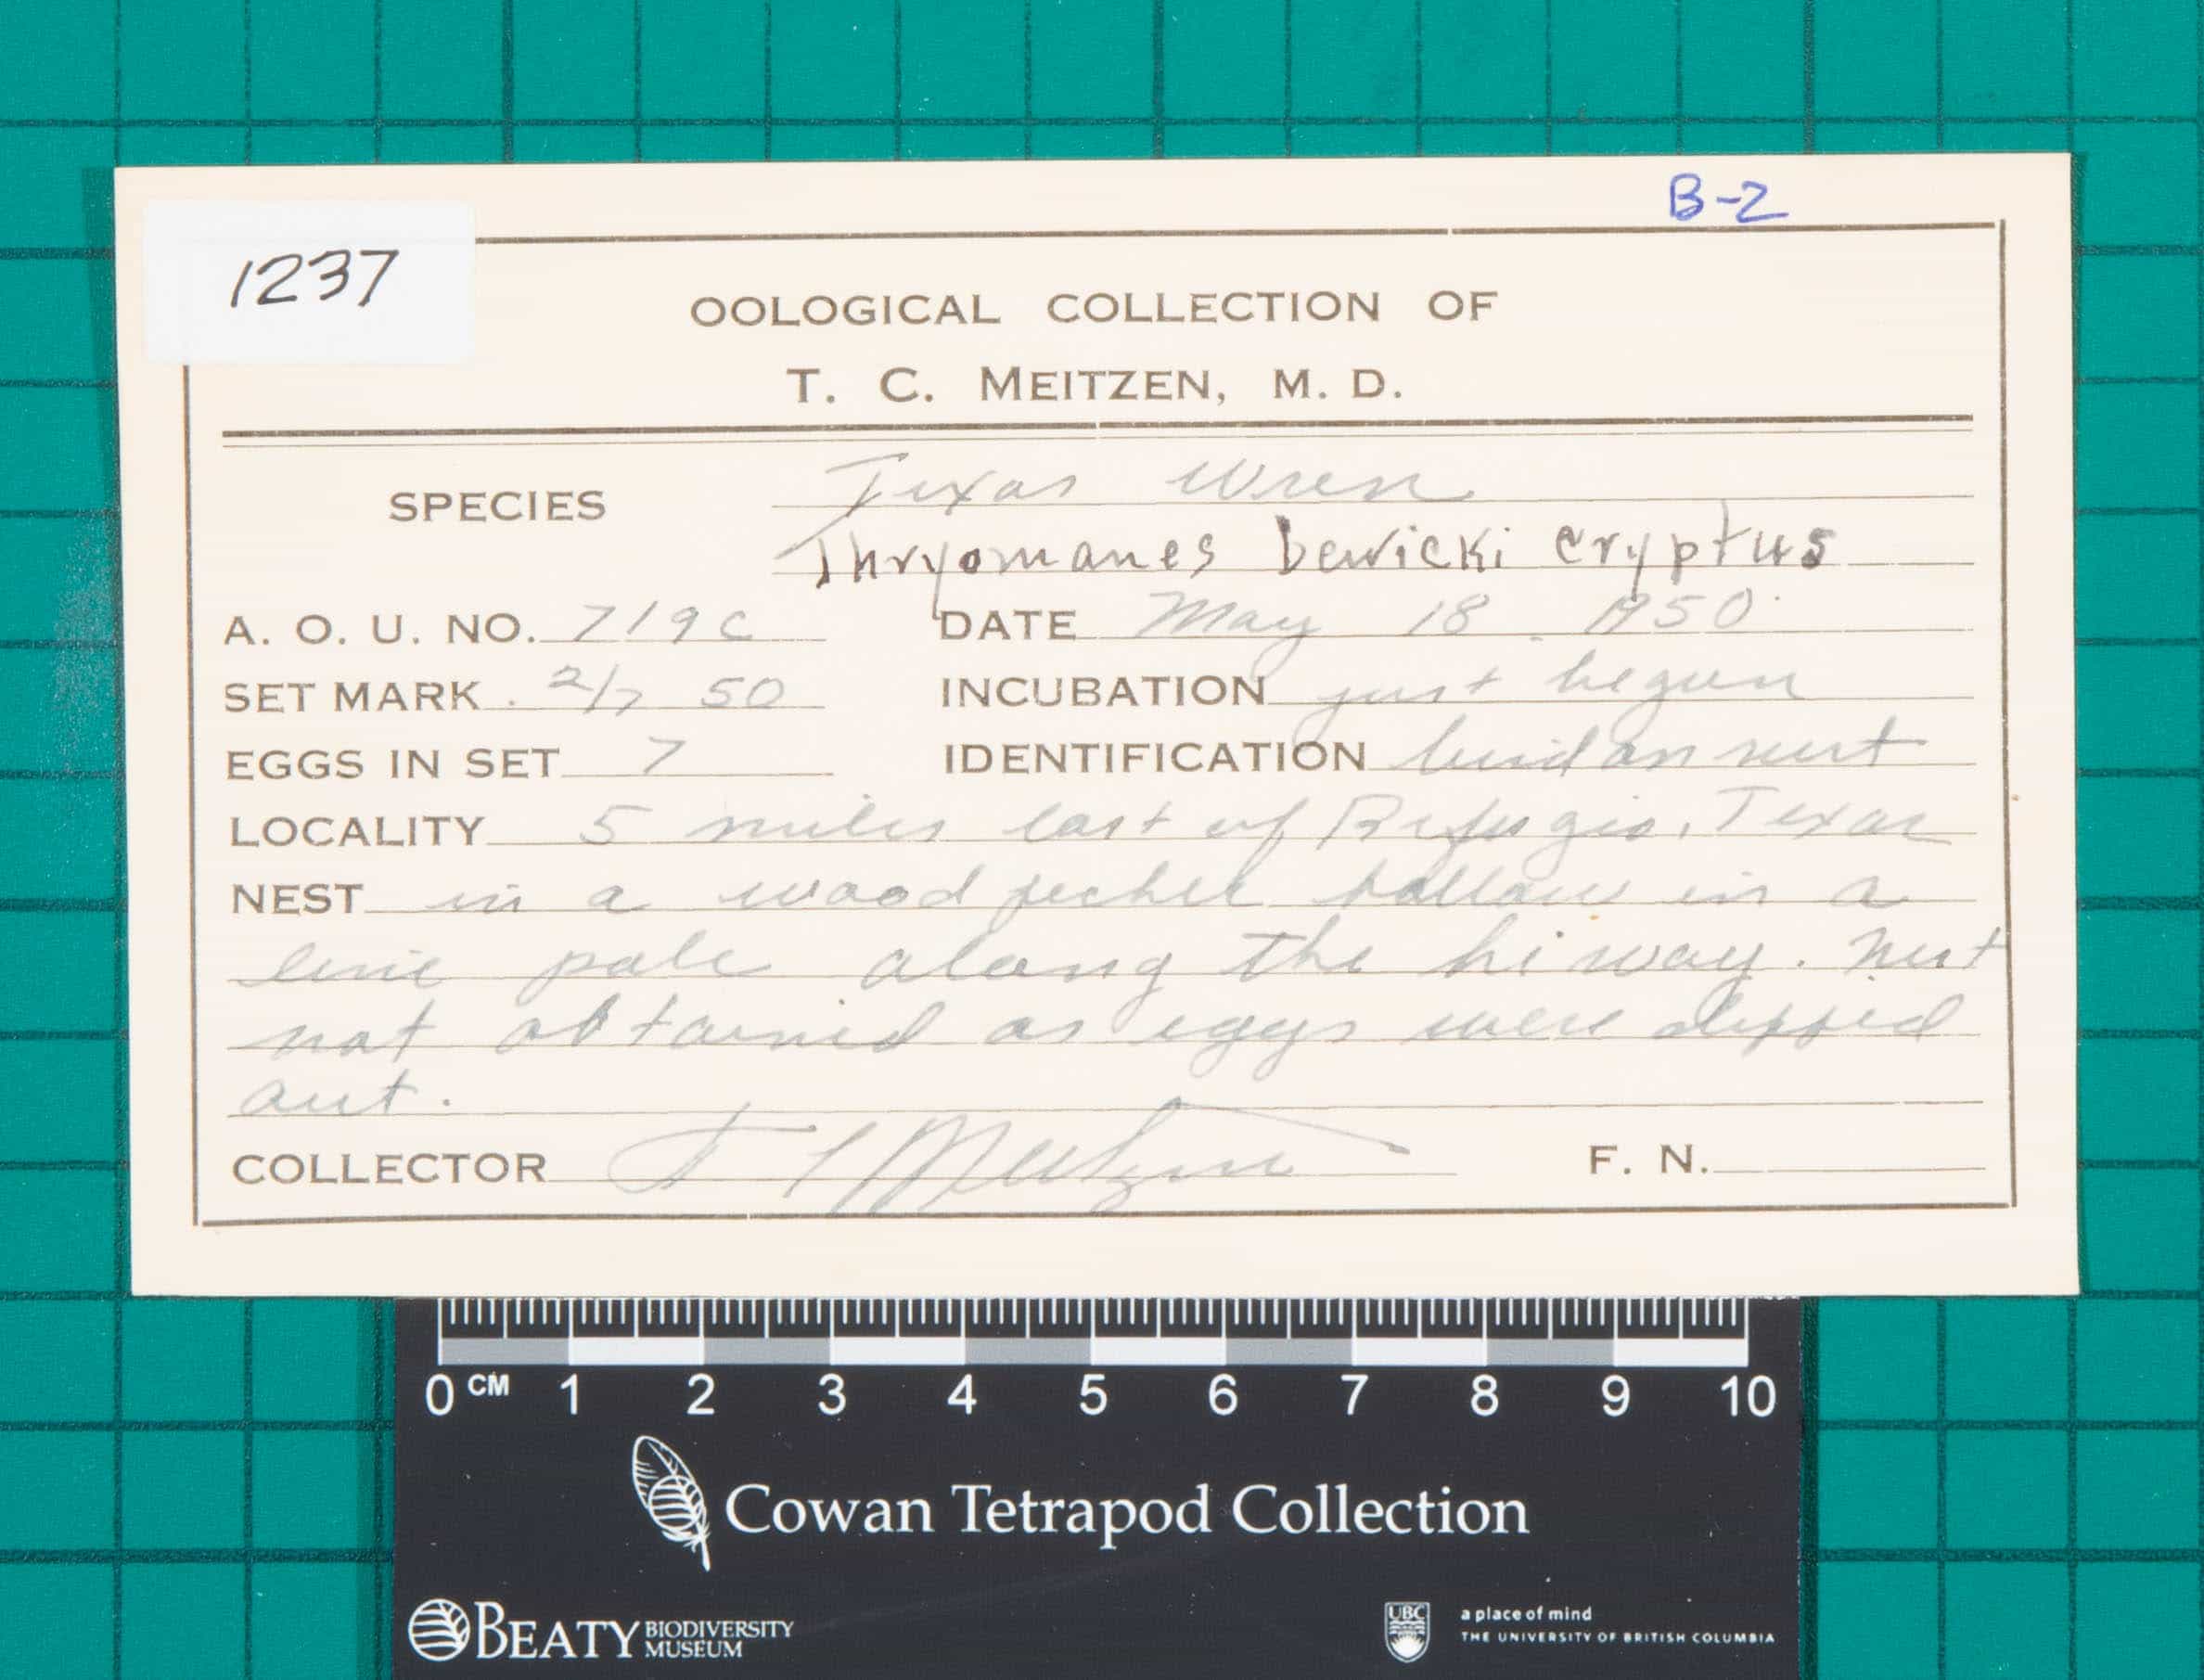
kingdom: Animalia
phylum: Chordata
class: Aves
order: Passeriformes
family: Troglodytidae
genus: Thryomanes
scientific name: Thryomanes bewickii
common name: Bewick's Wren
